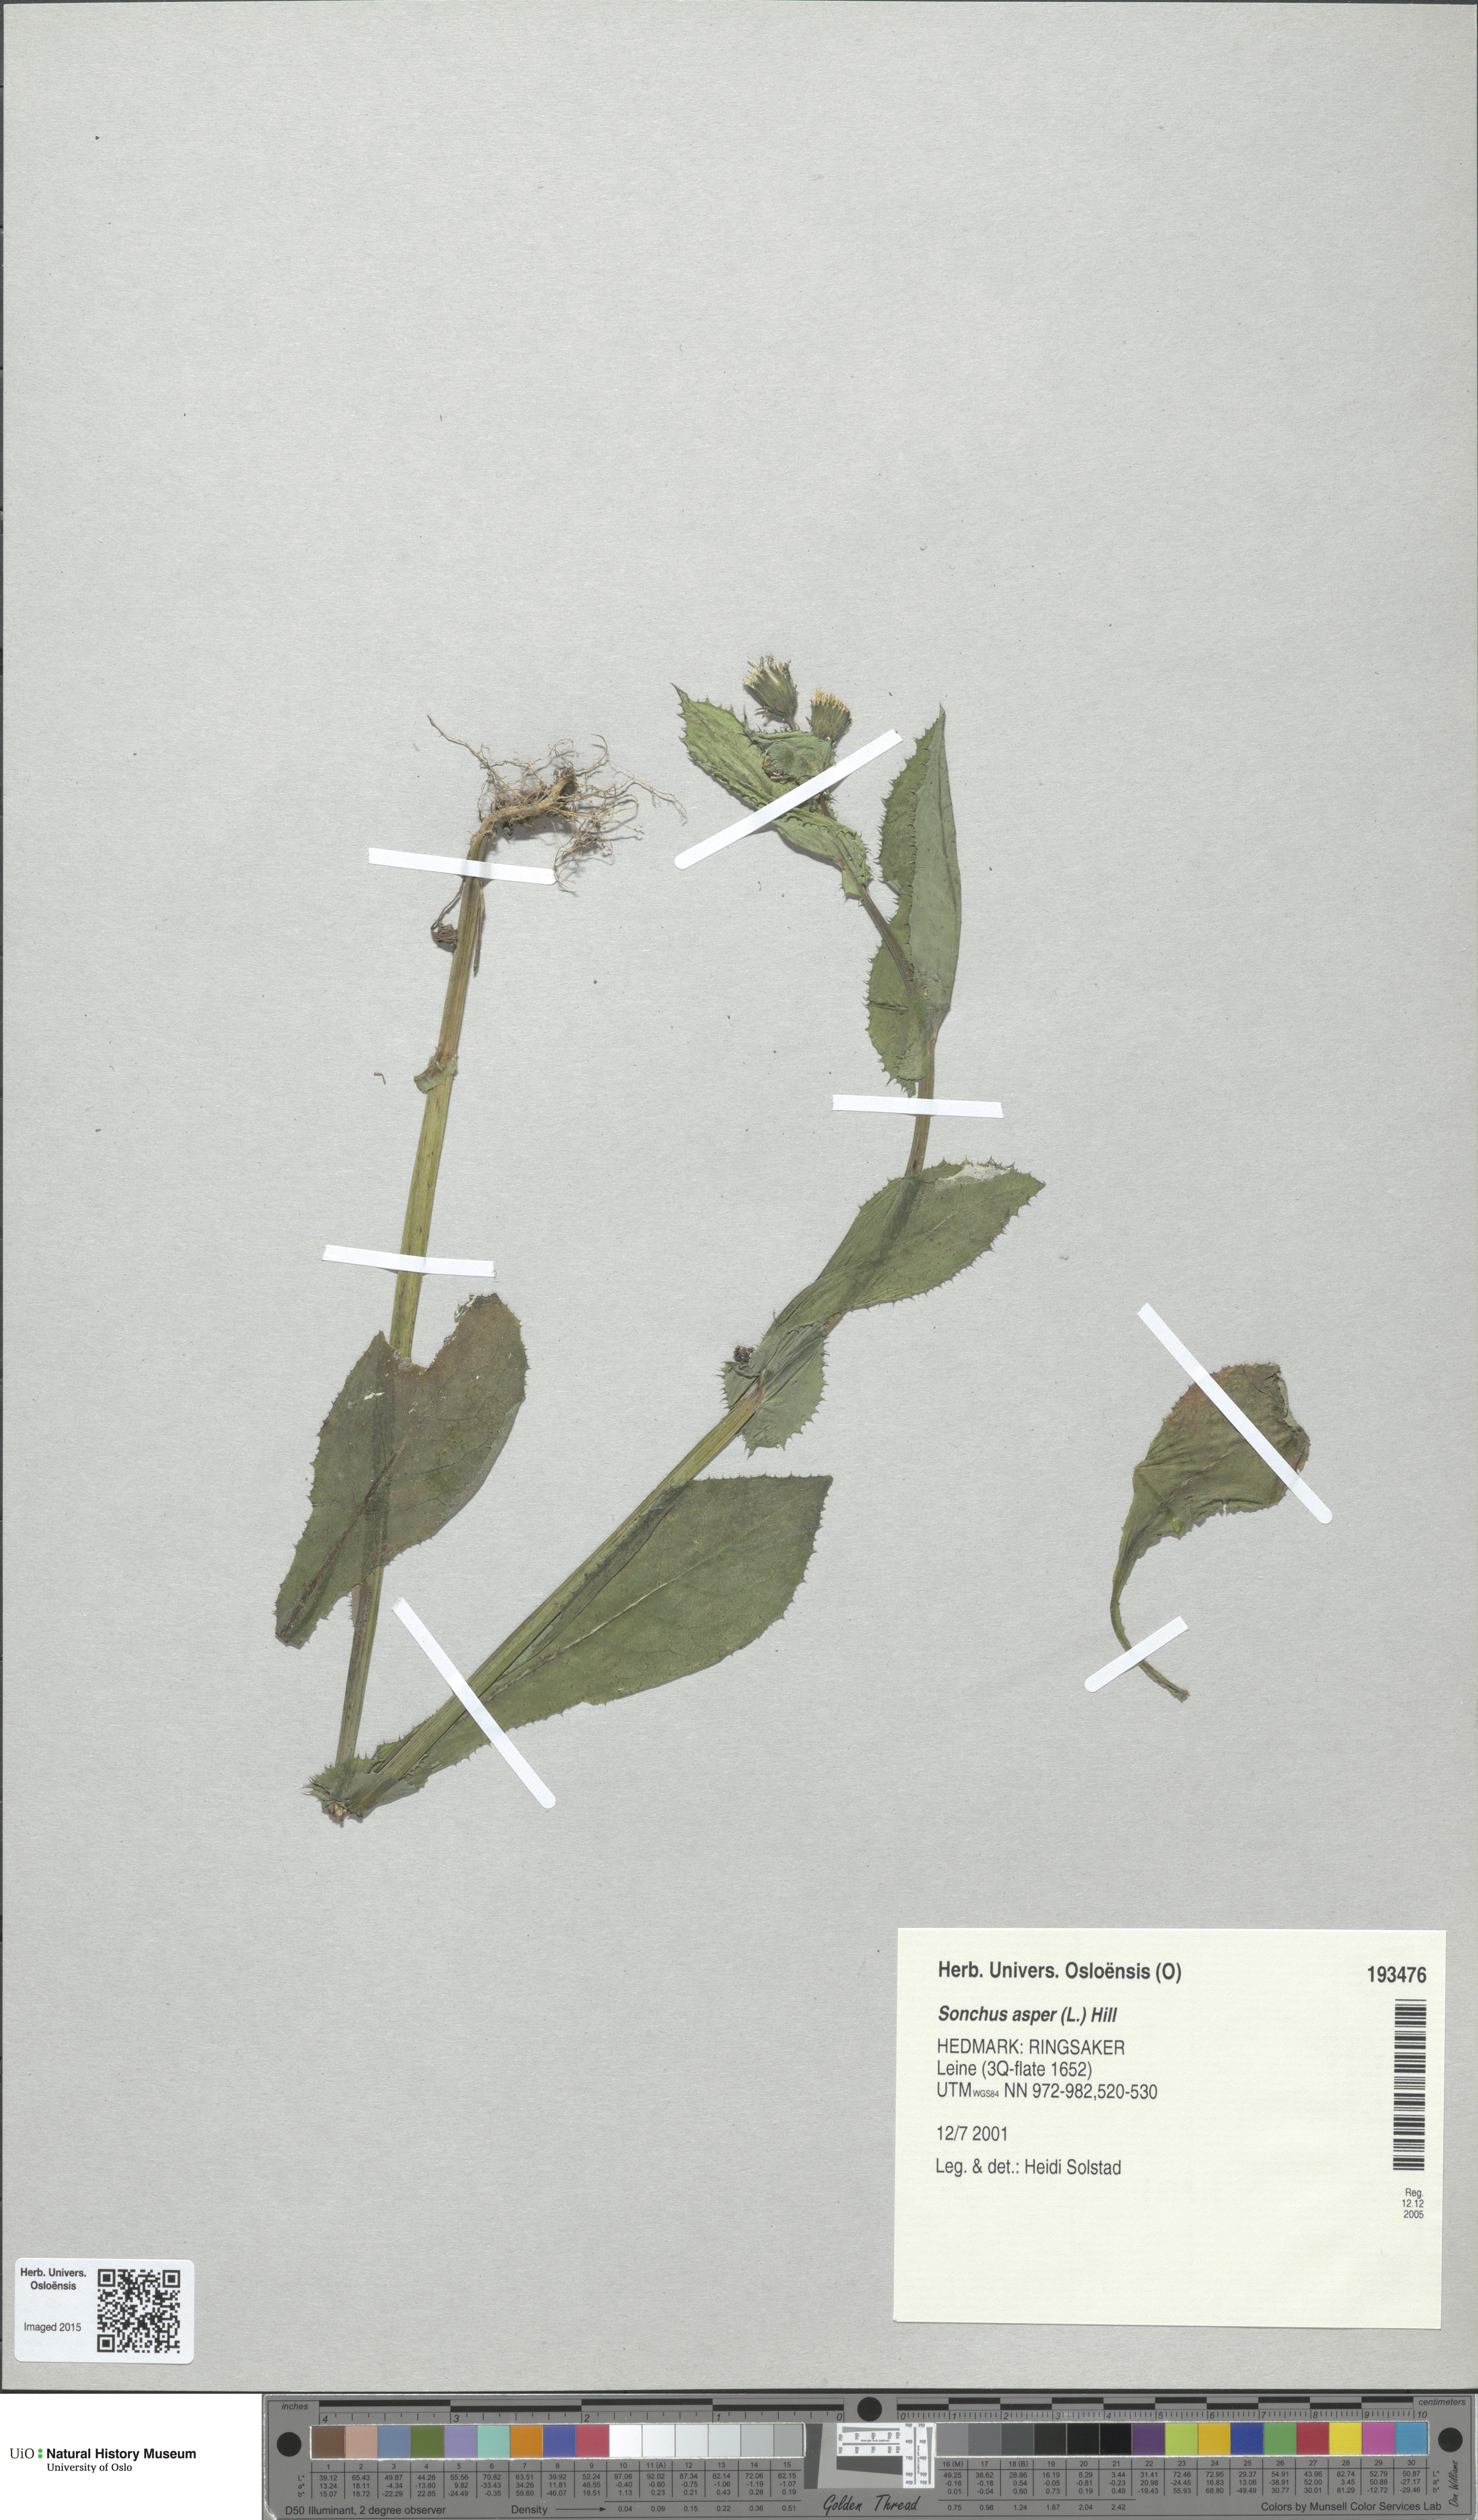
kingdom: Plantae
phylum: Tracheophyta
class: Magnoliopsida
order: Asterales
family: Asteraceae
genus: Sonchus
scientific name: Sonchus asper
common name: Prickly sow-thistle
